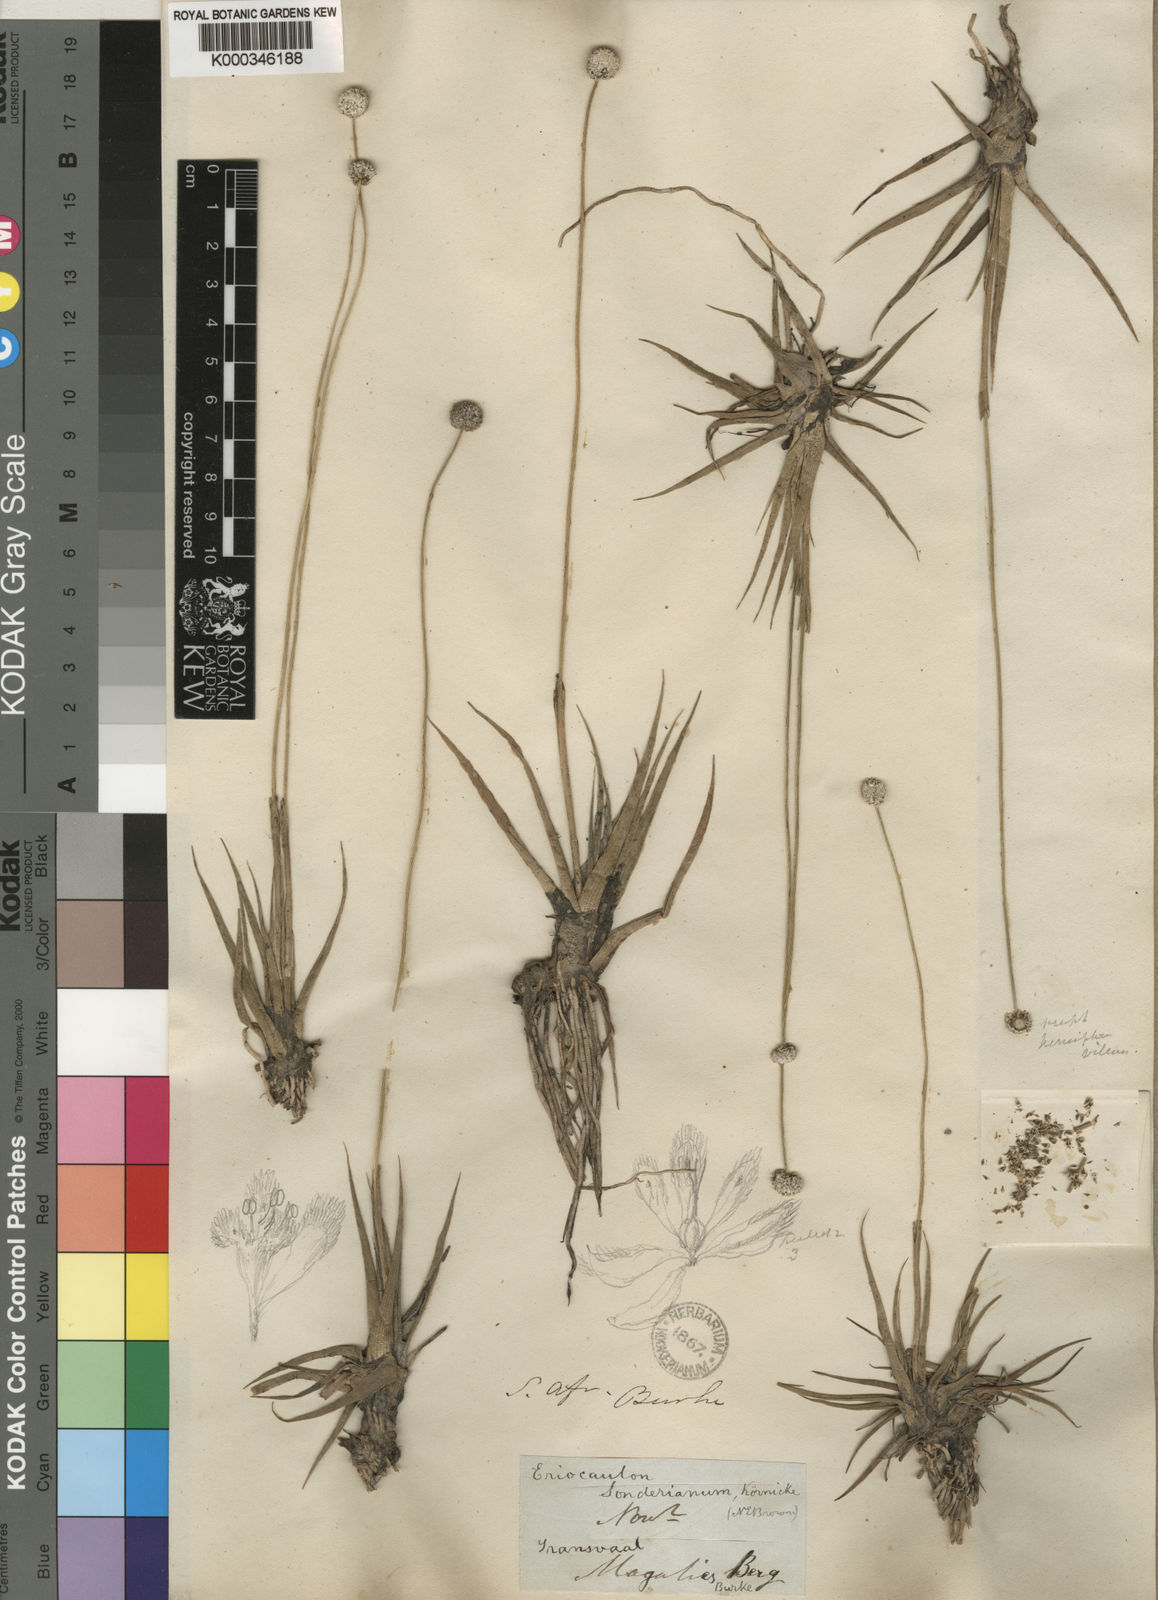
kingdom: Plantae
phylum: Tracheophyta
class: Liliopsida
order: Poales
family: Eriocaulaceae
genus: Eriocaulon
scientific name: Eriocaulon
